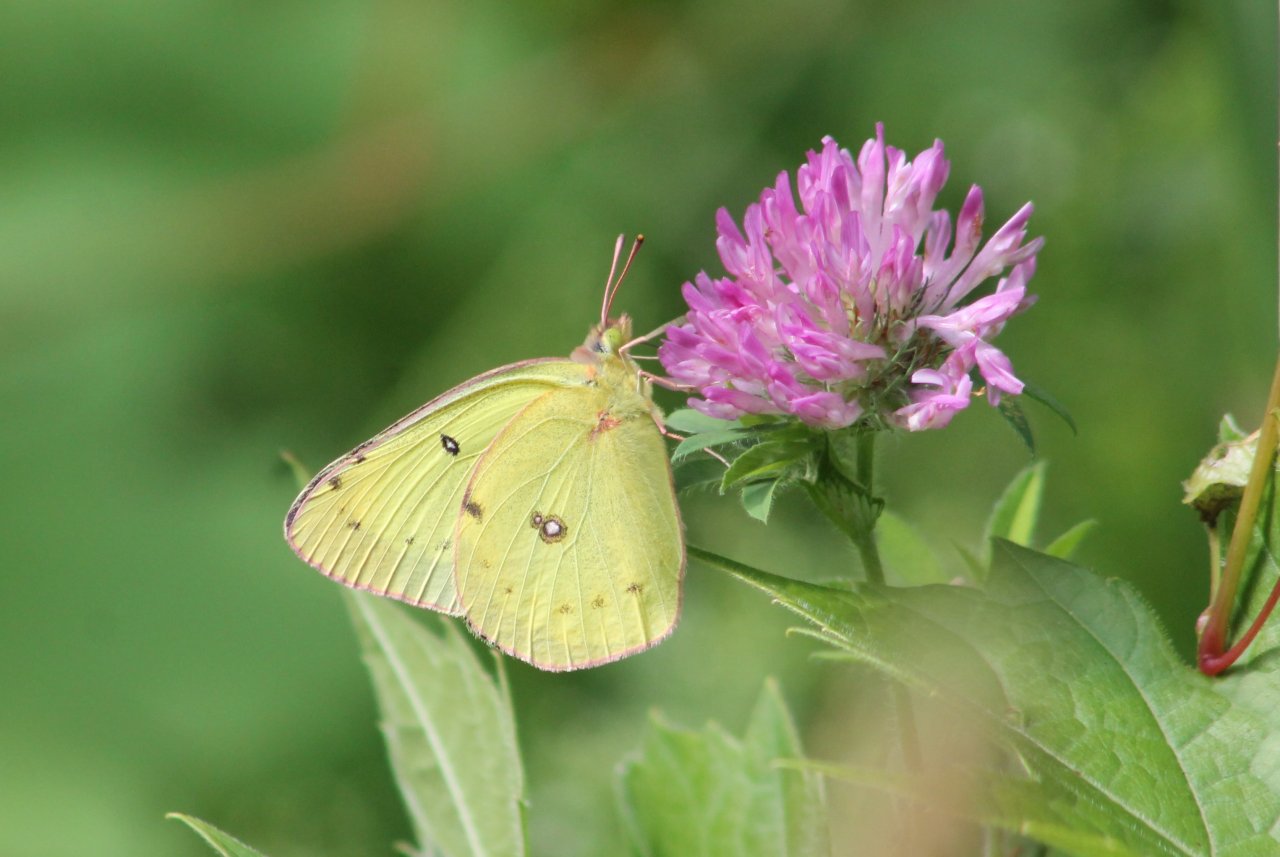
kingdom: Animalia
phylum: Arthropoda
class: Insecta
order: Lepidoptera
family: Pieridae
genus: Colias
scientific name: Colias philodice
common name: Clouded Sulphur
